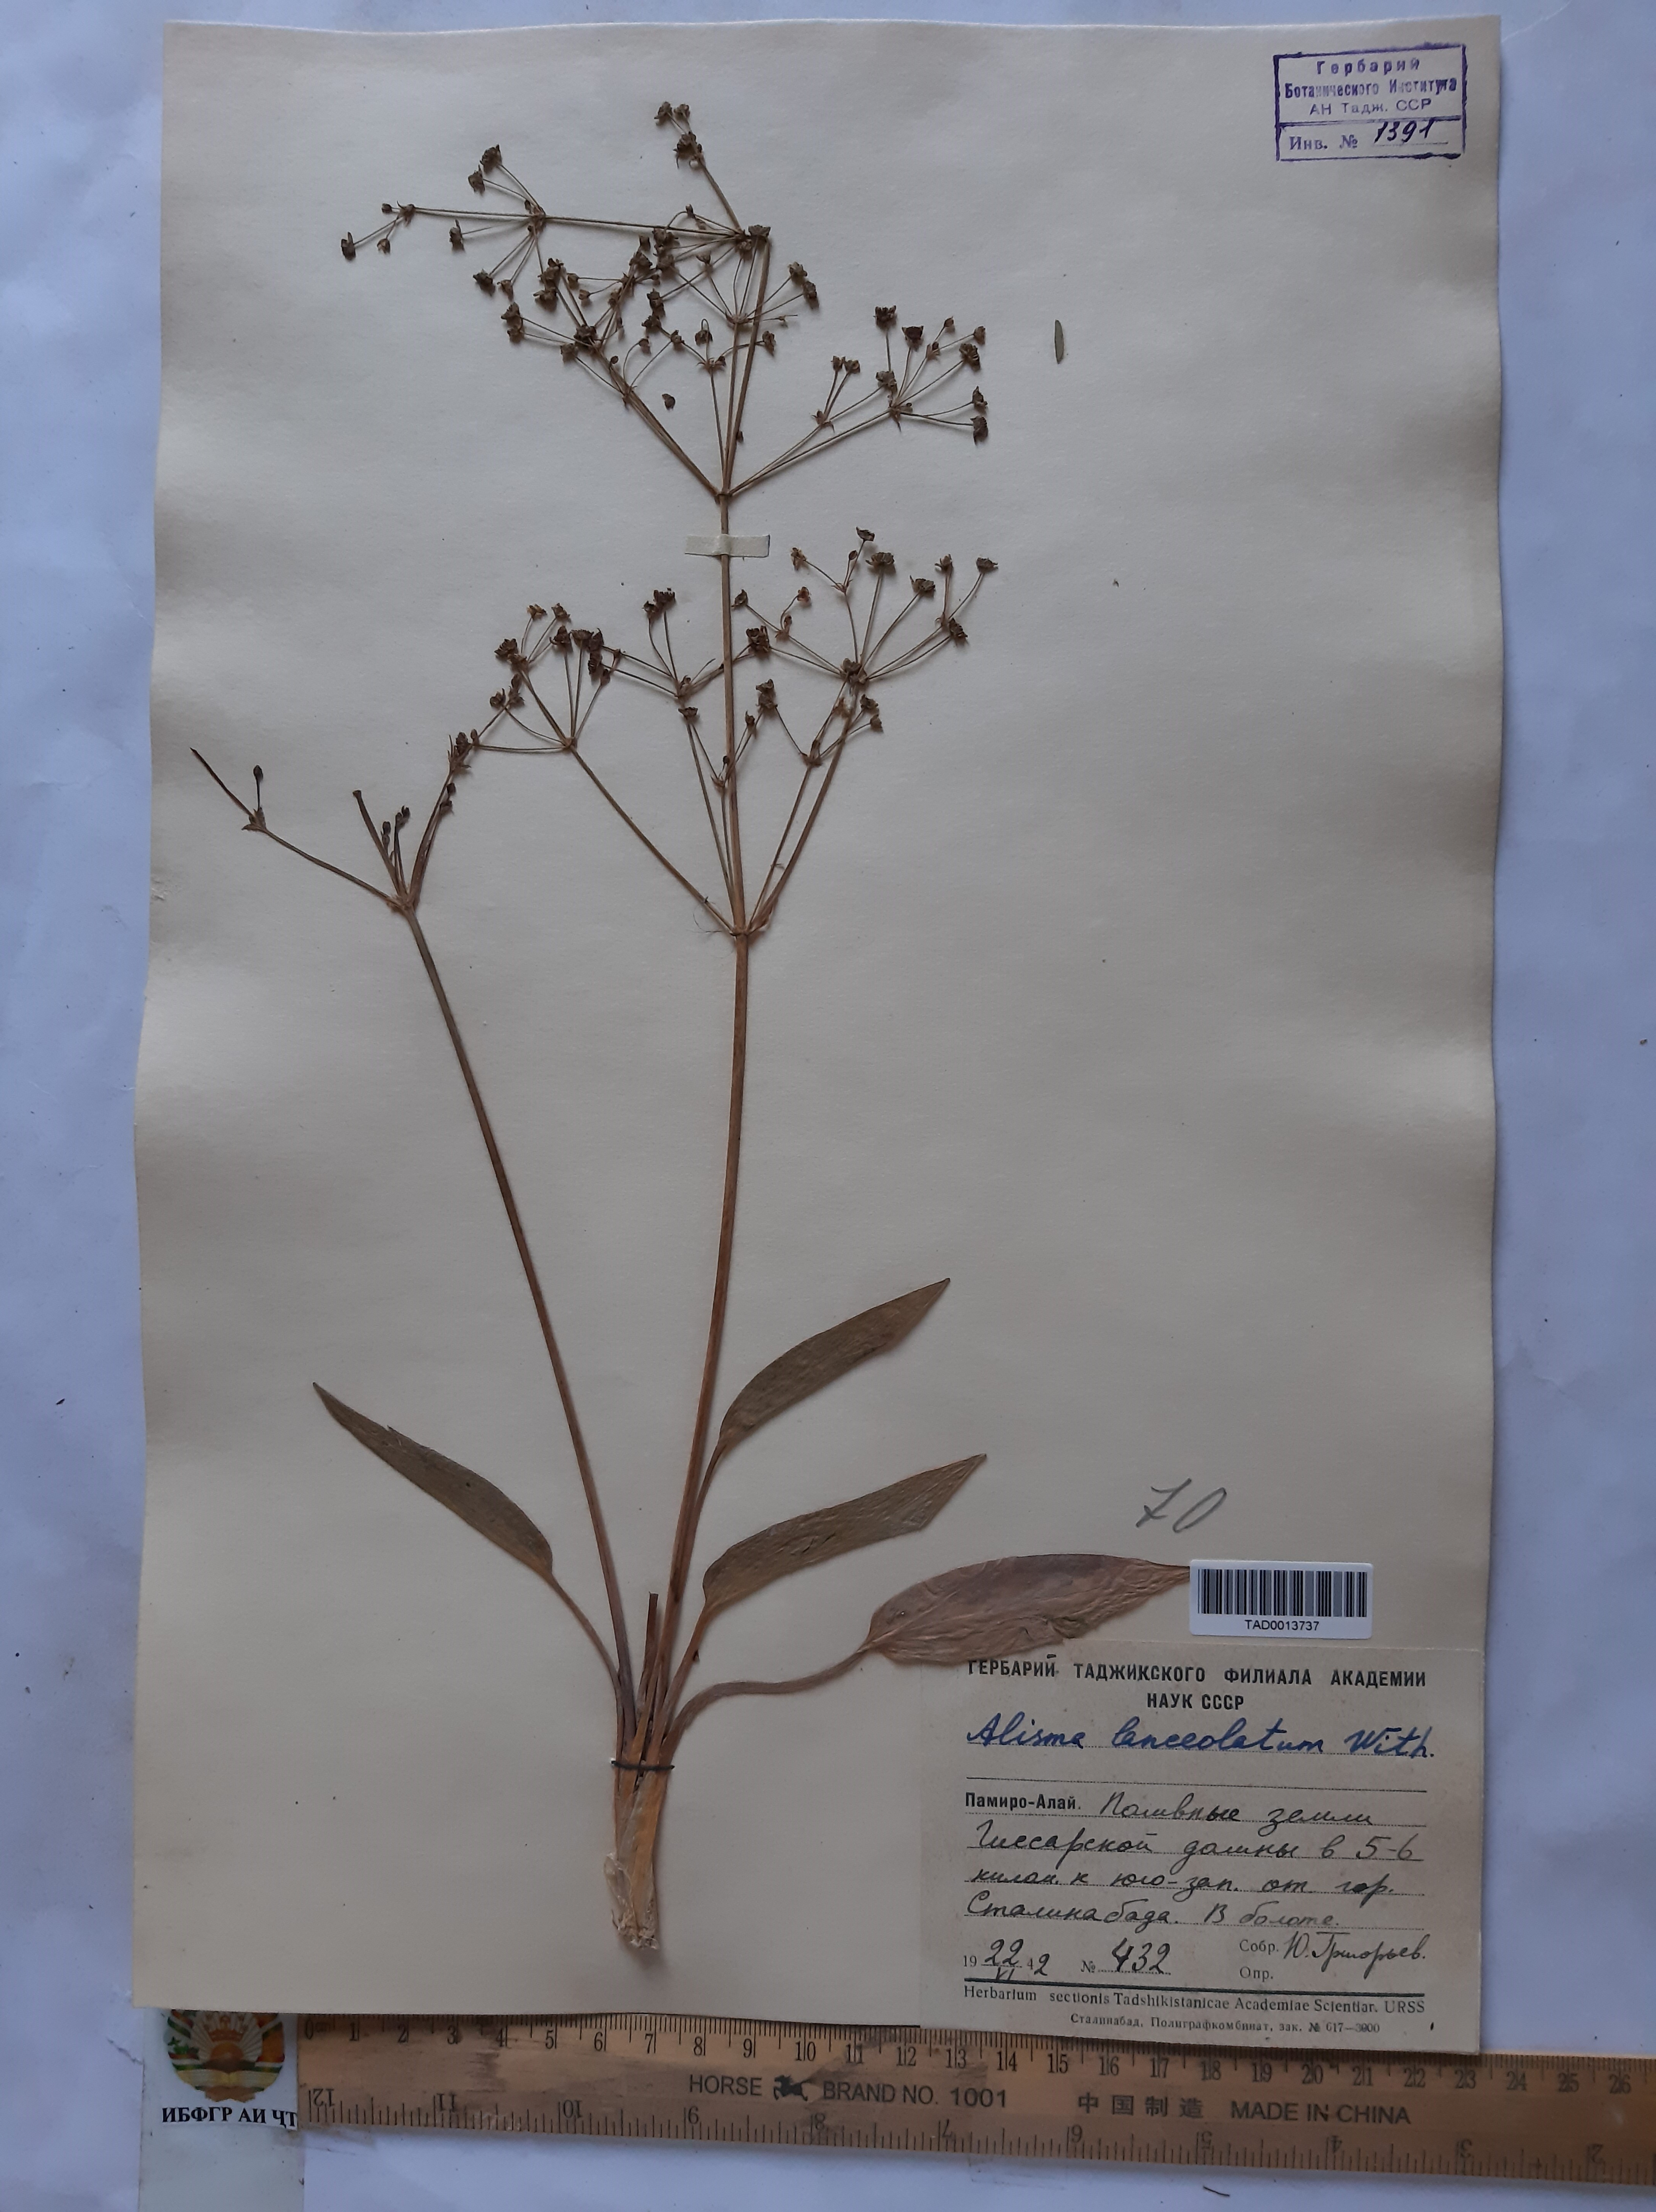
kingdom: Plantae
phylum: Tracheophyta
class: Liliopsida
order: Alismatales
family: Alismataceae
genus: Alisma
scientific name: Alisma lanceolatum
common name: Narrow-leaved water-plantain
